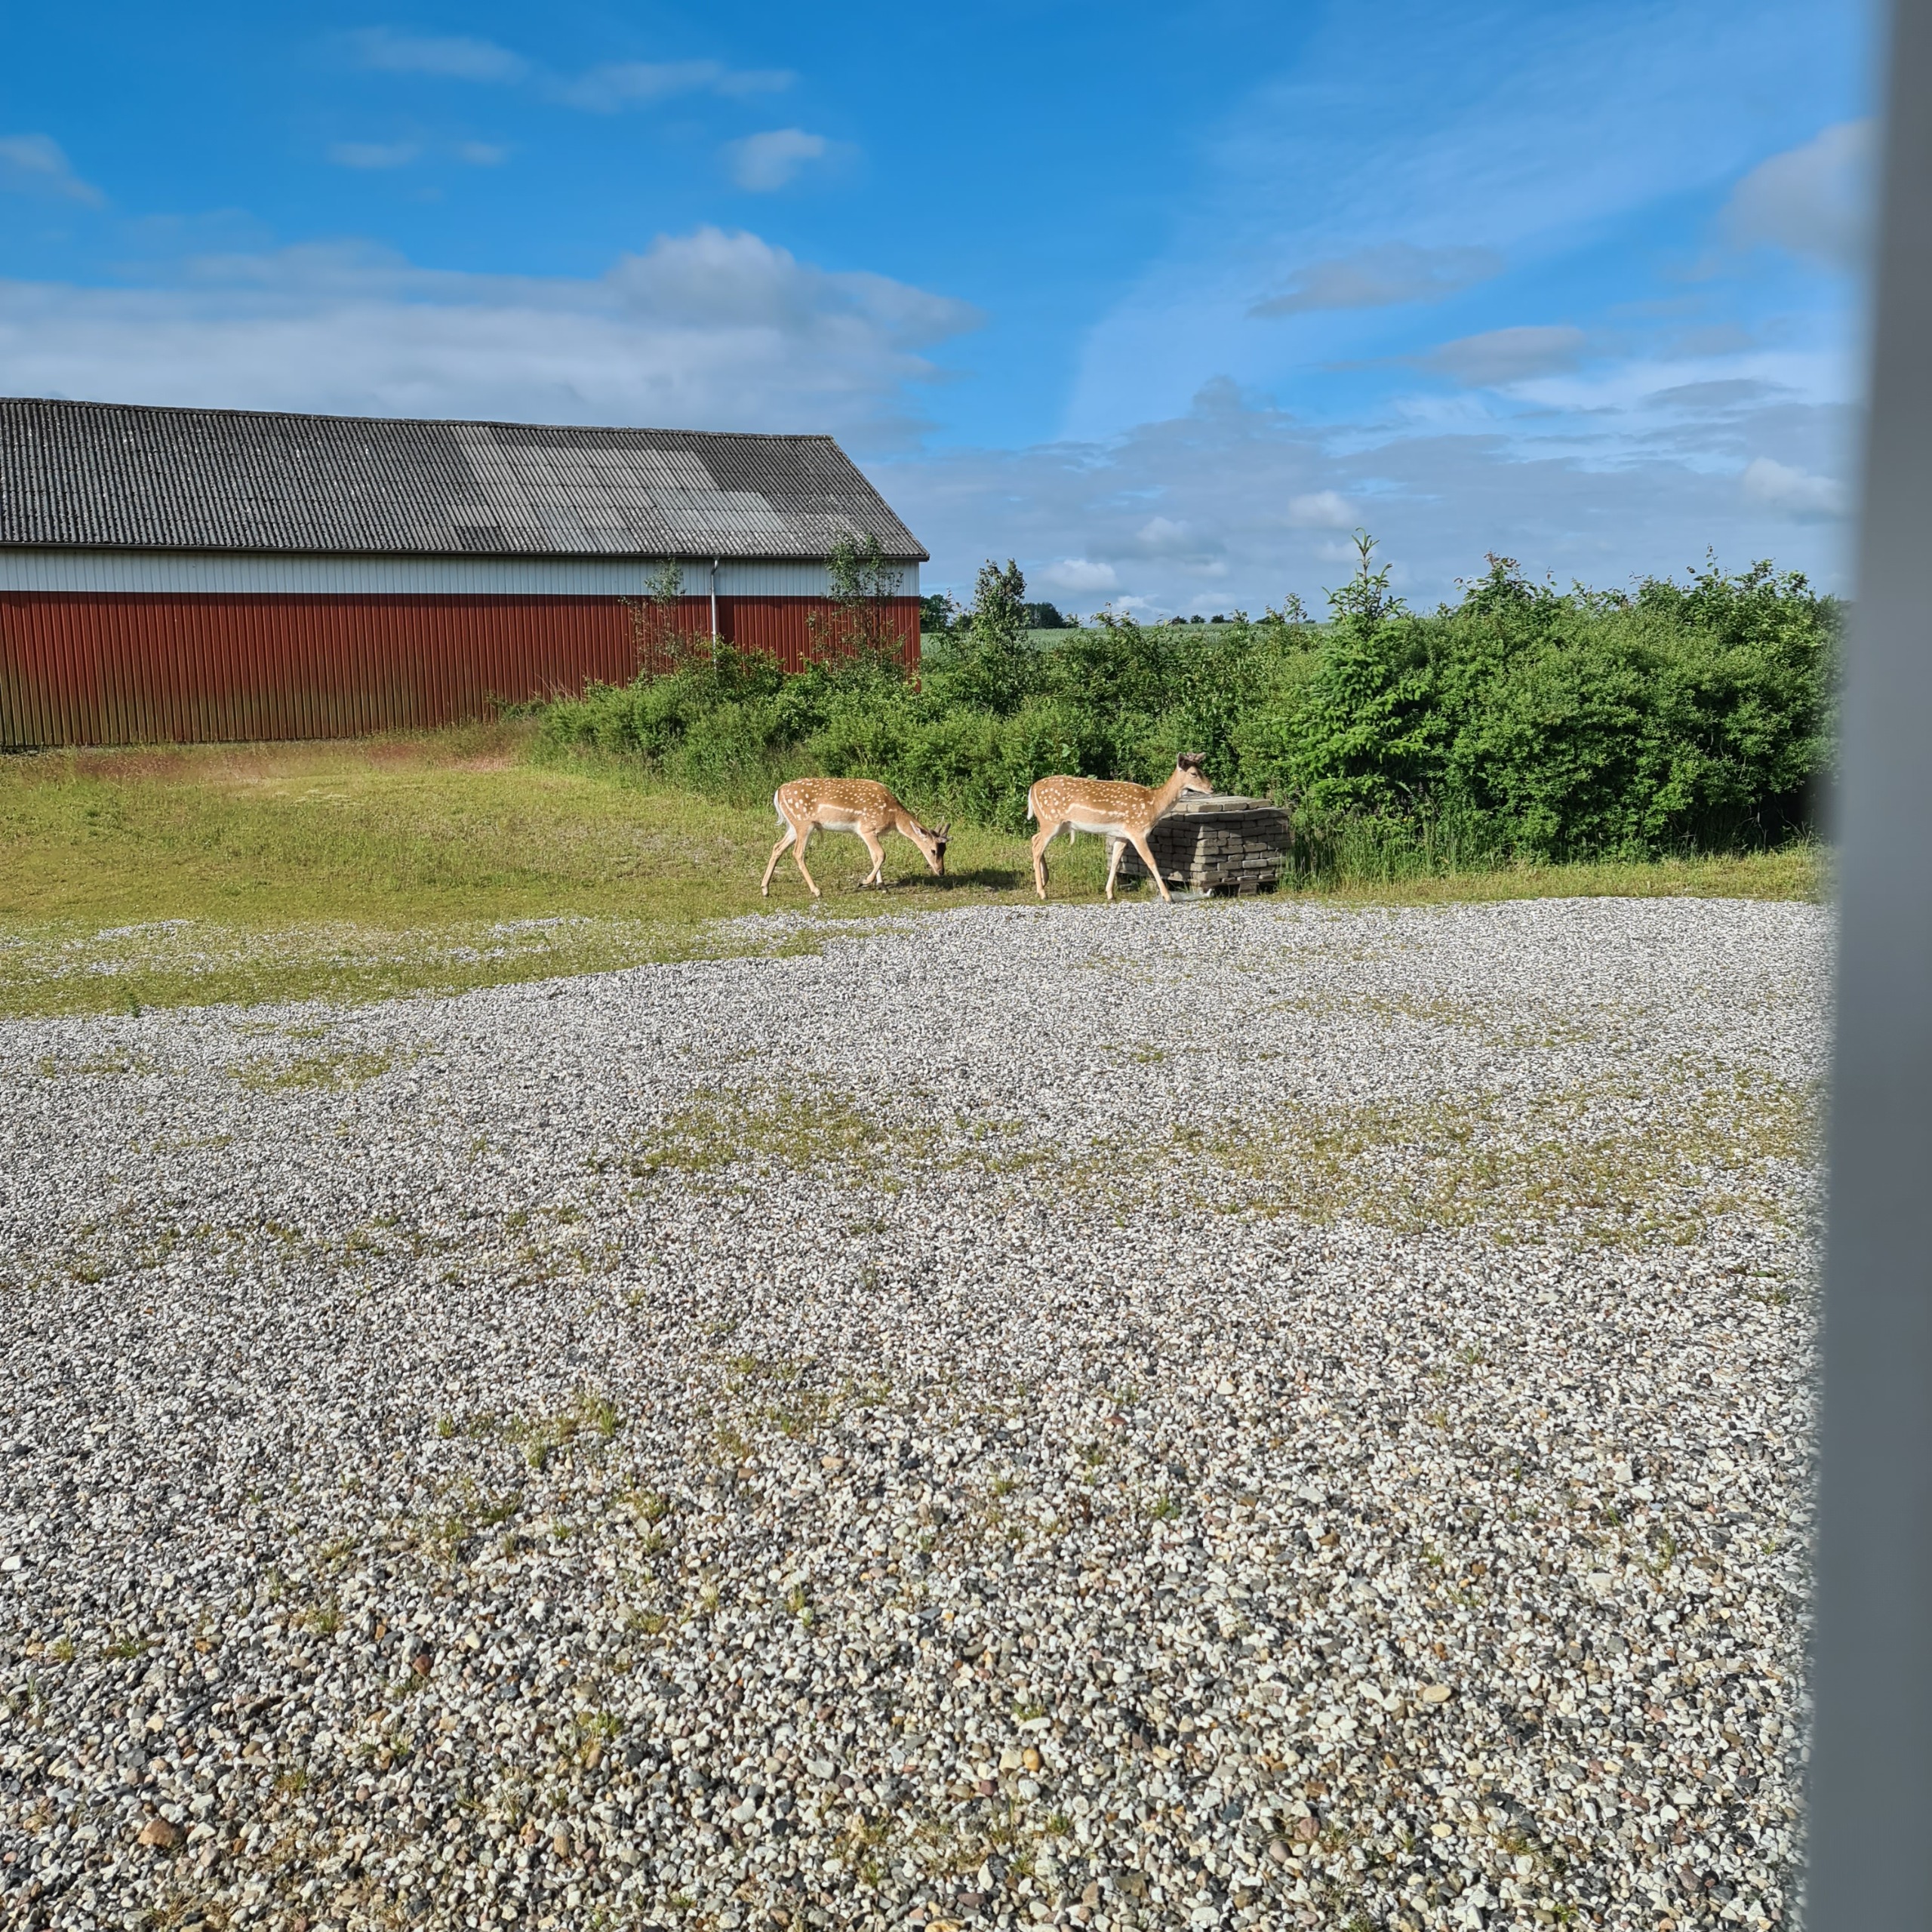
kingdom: Animalia
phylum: Chordata
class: Mammalia
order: Artiodactyla
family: Cervidae
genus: Dama
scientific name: Dama dama
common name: Dådyr
